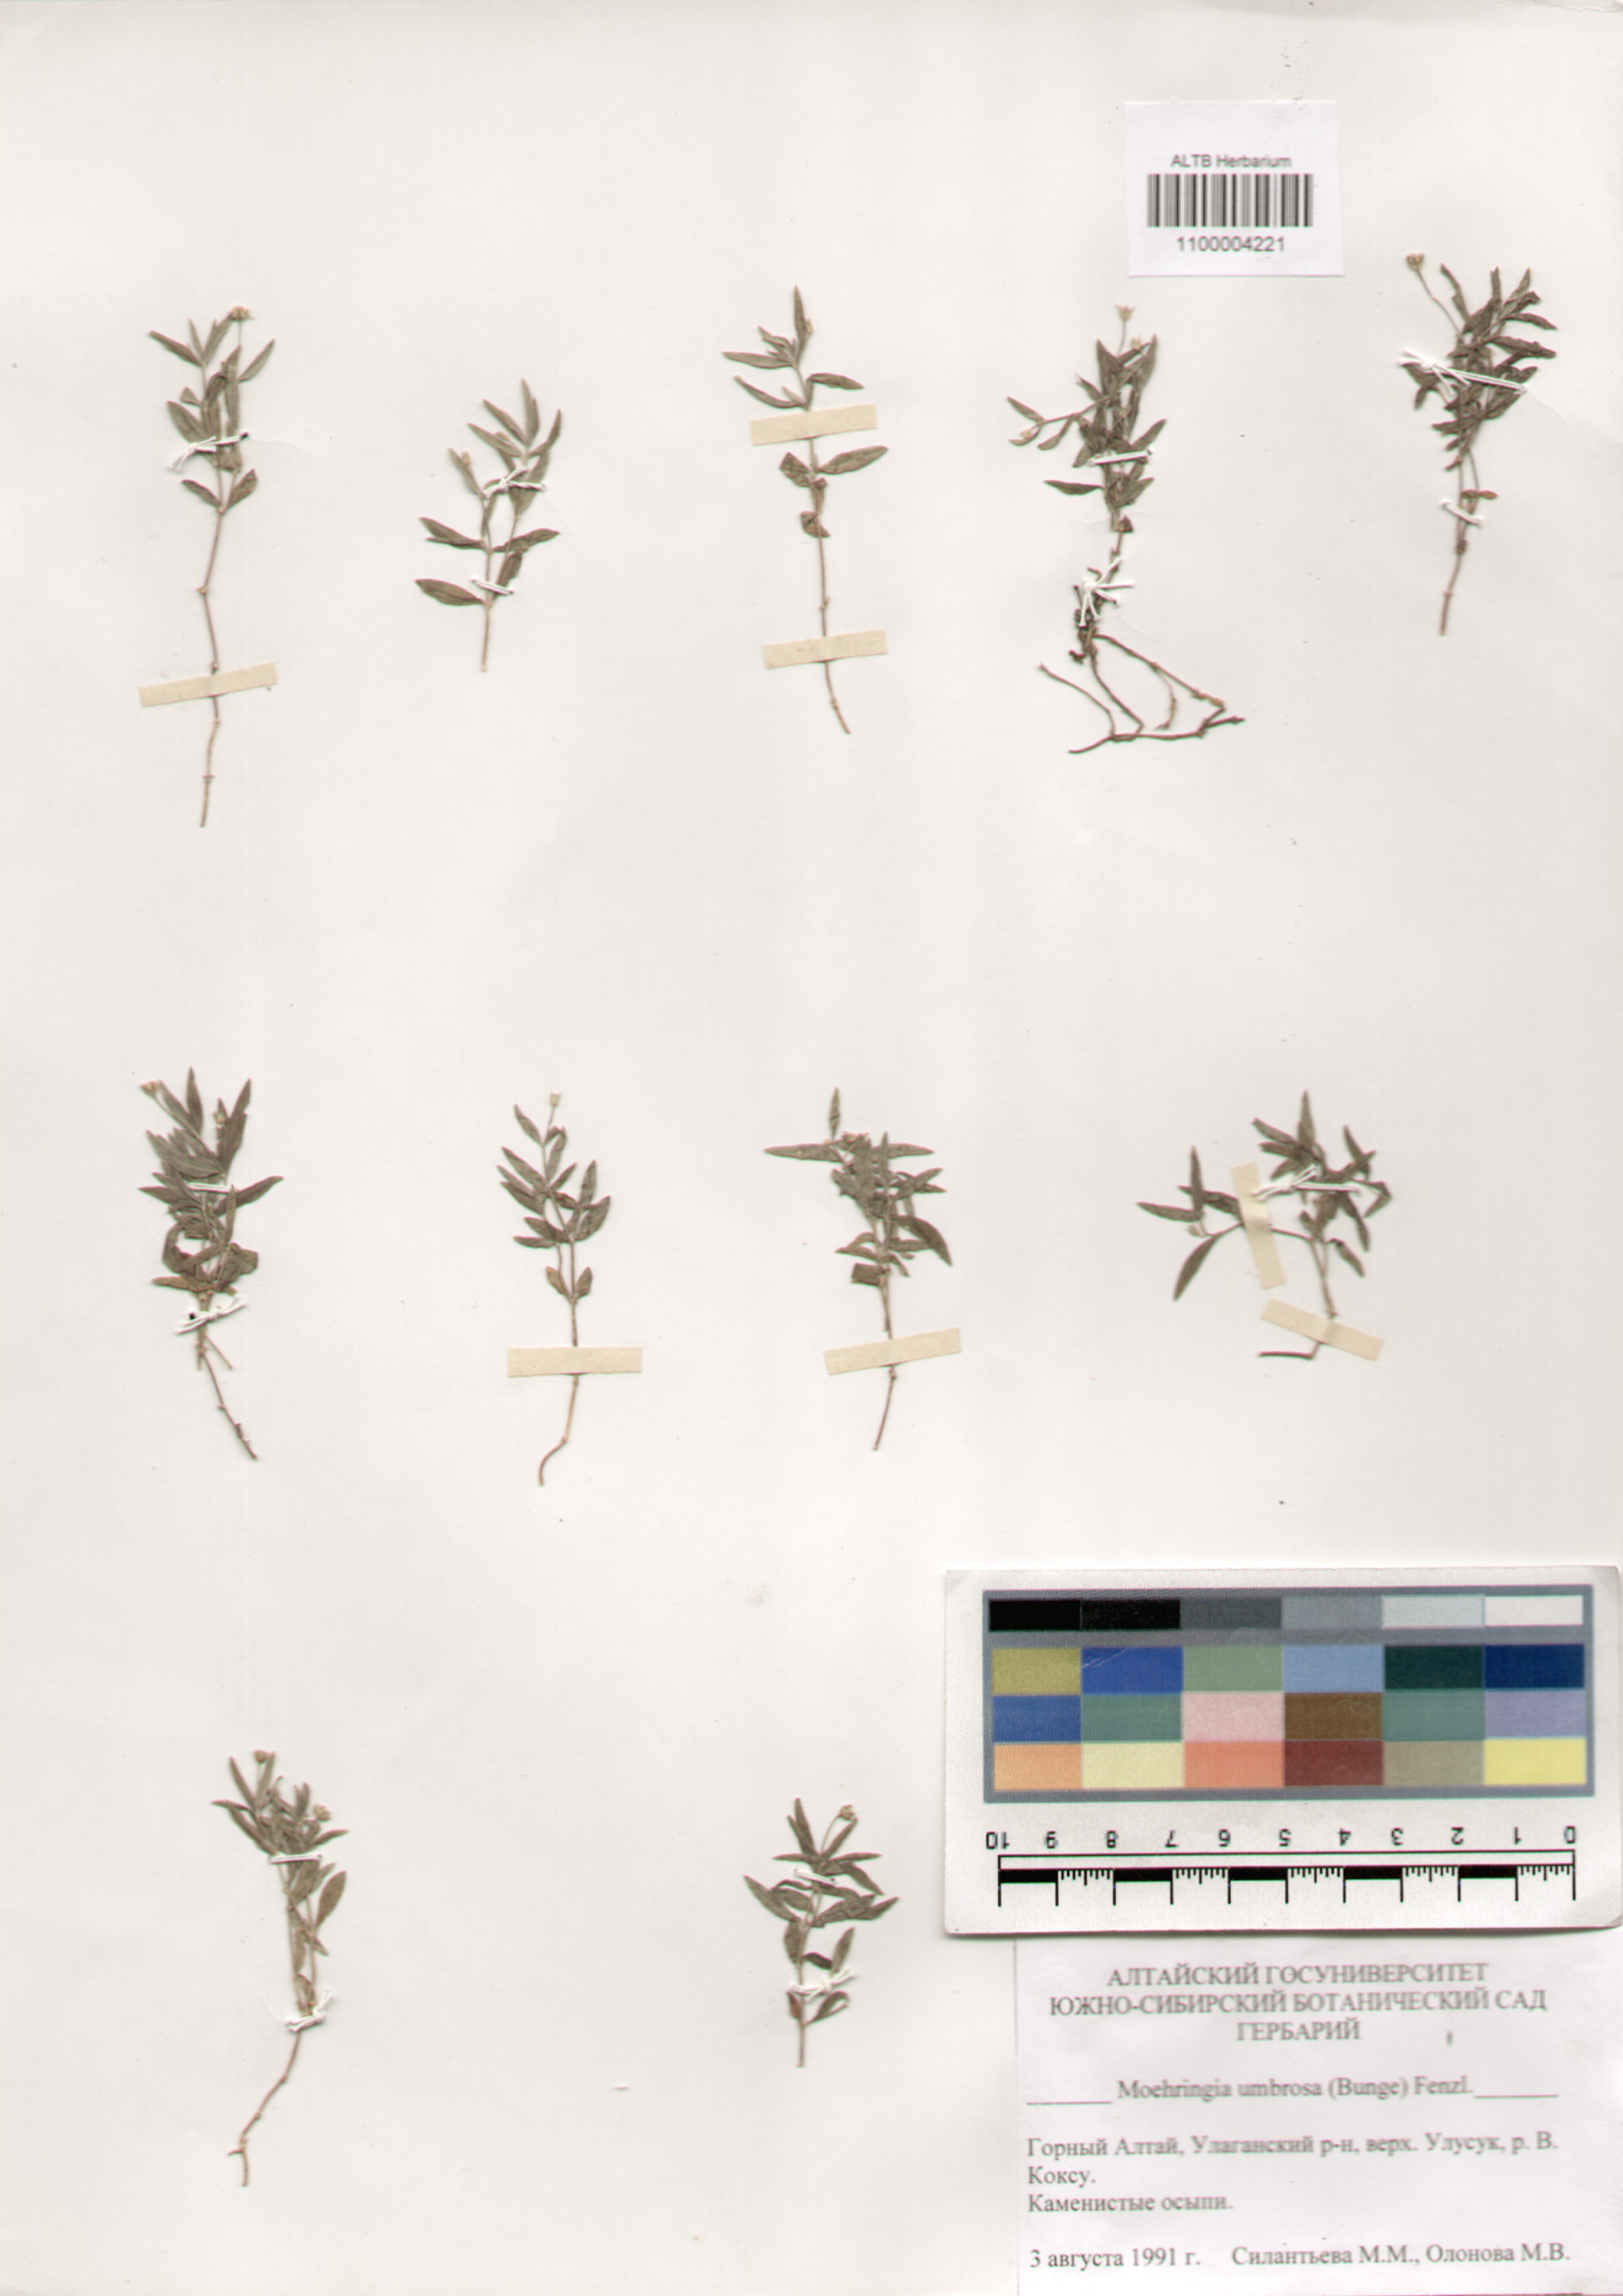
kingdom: Plantae
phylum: Tracheophyta
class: Magnoliopsida
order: Caryophyllales
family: Caryophyllaceae
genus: Moehringia
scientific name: Moehringia umbrosa
